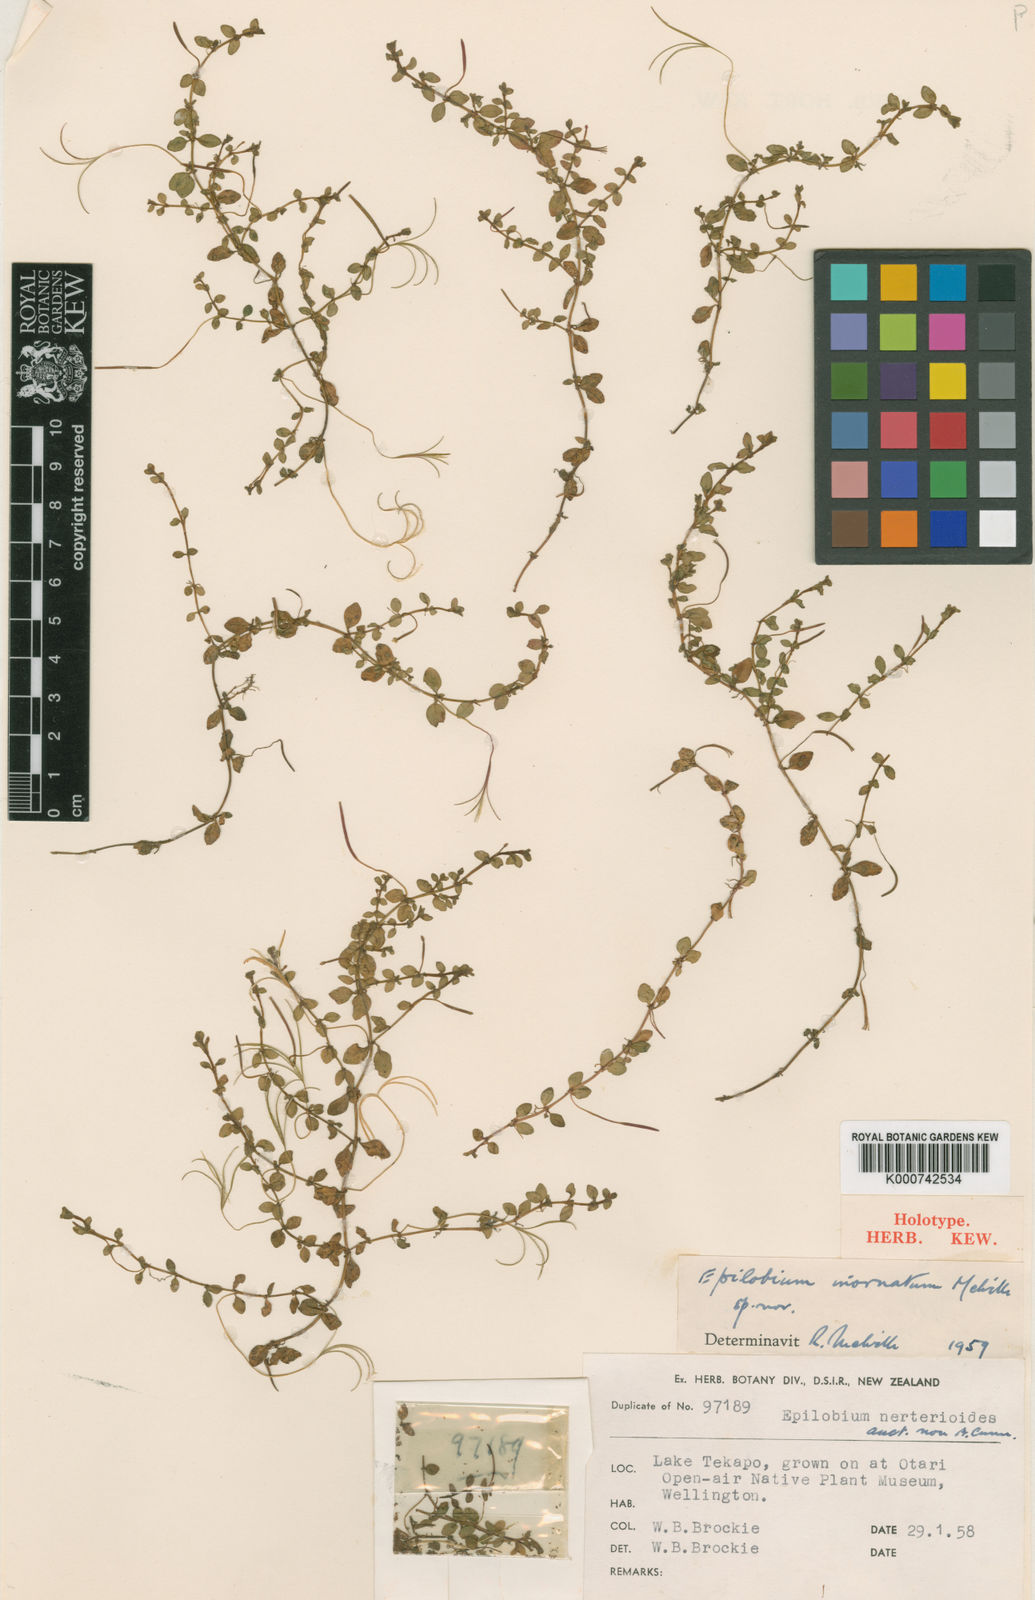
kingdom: Plantae
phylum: Tracheophyta
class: Magnoliopsida
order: Myrtales
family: Onagraceae
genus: Epilobium
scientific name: Epilobium
